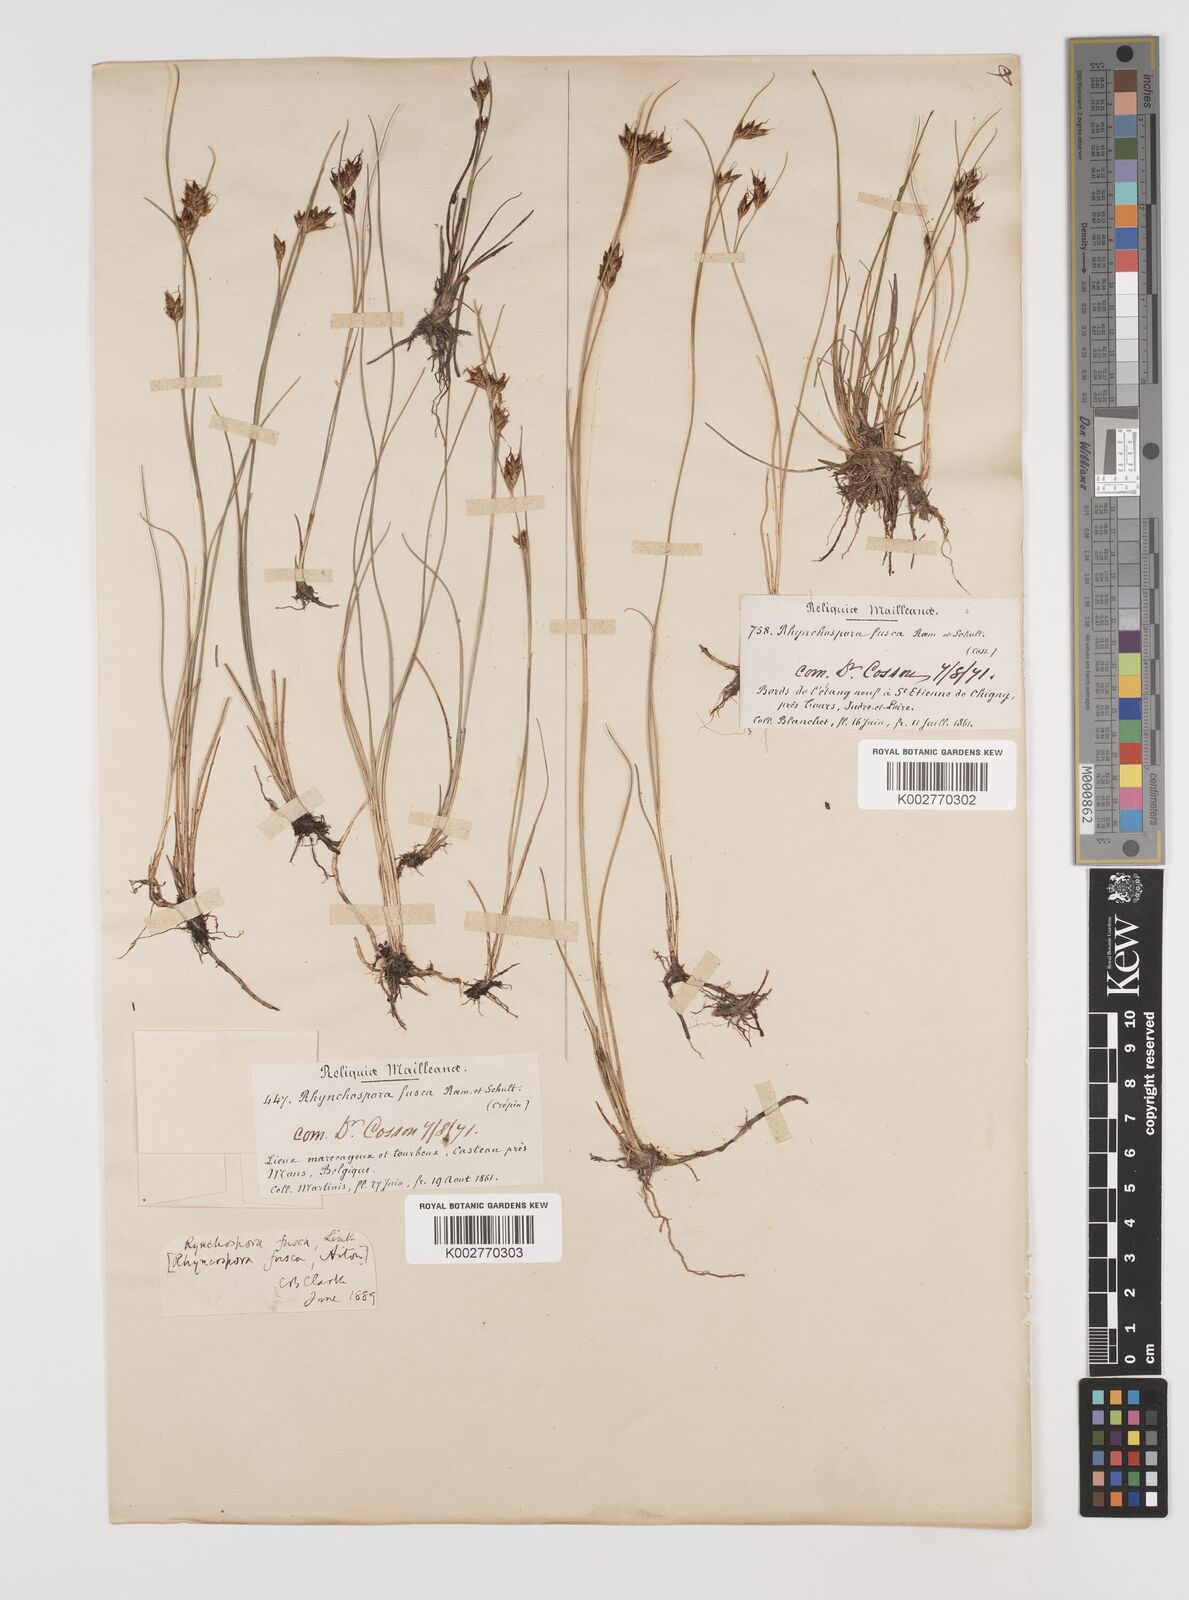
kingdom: Plantae
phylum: Tracheophyta
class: Liliopsida
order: Poales
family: Cyperaceae
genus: Rhynchospora
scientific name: Rhynchospora fusca
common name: Brown beak-sedge
